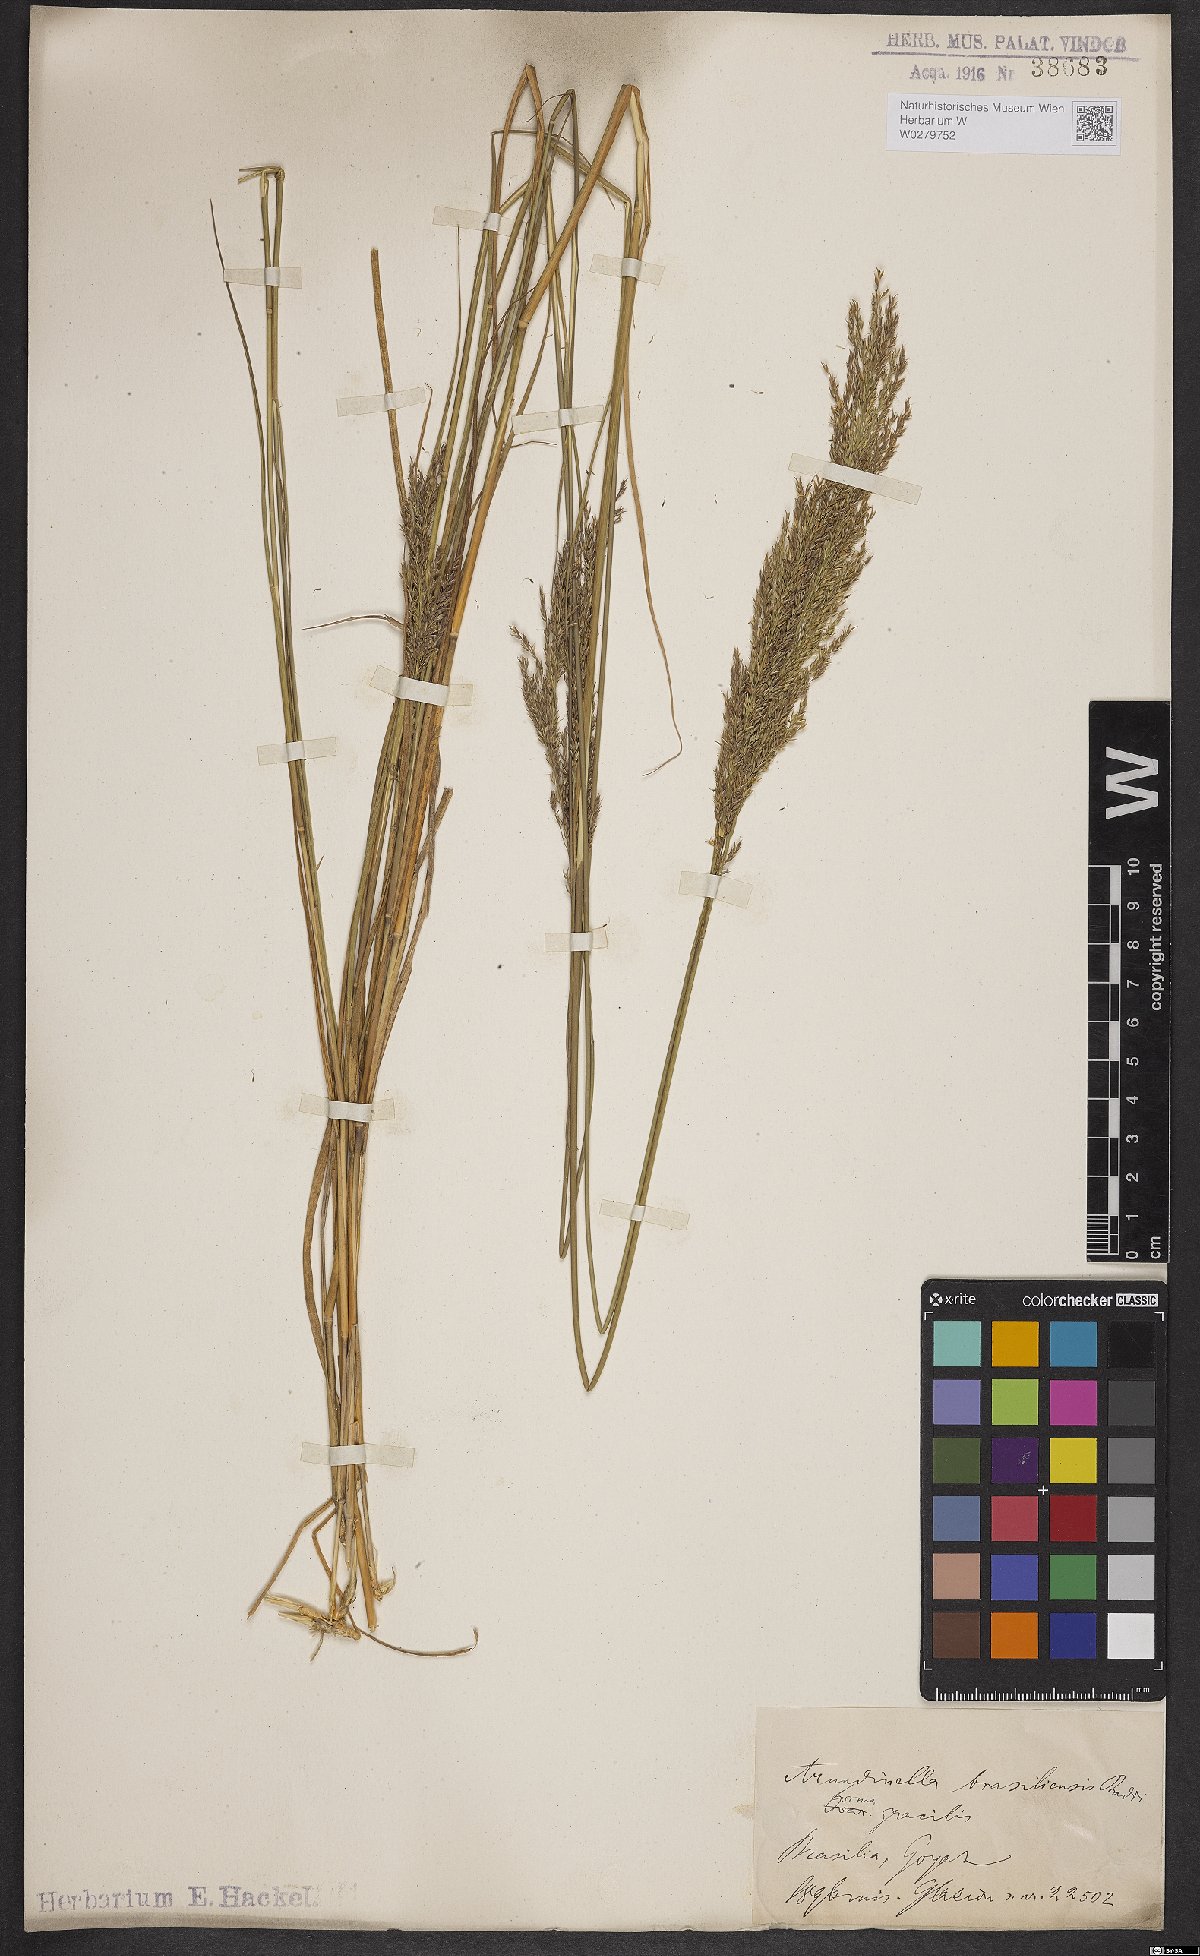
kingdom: Plantae
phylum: Tracheophyta
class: Liliopsida
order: Poales
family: Poaceae
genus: Arundinella
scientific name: Arundinella hispida
